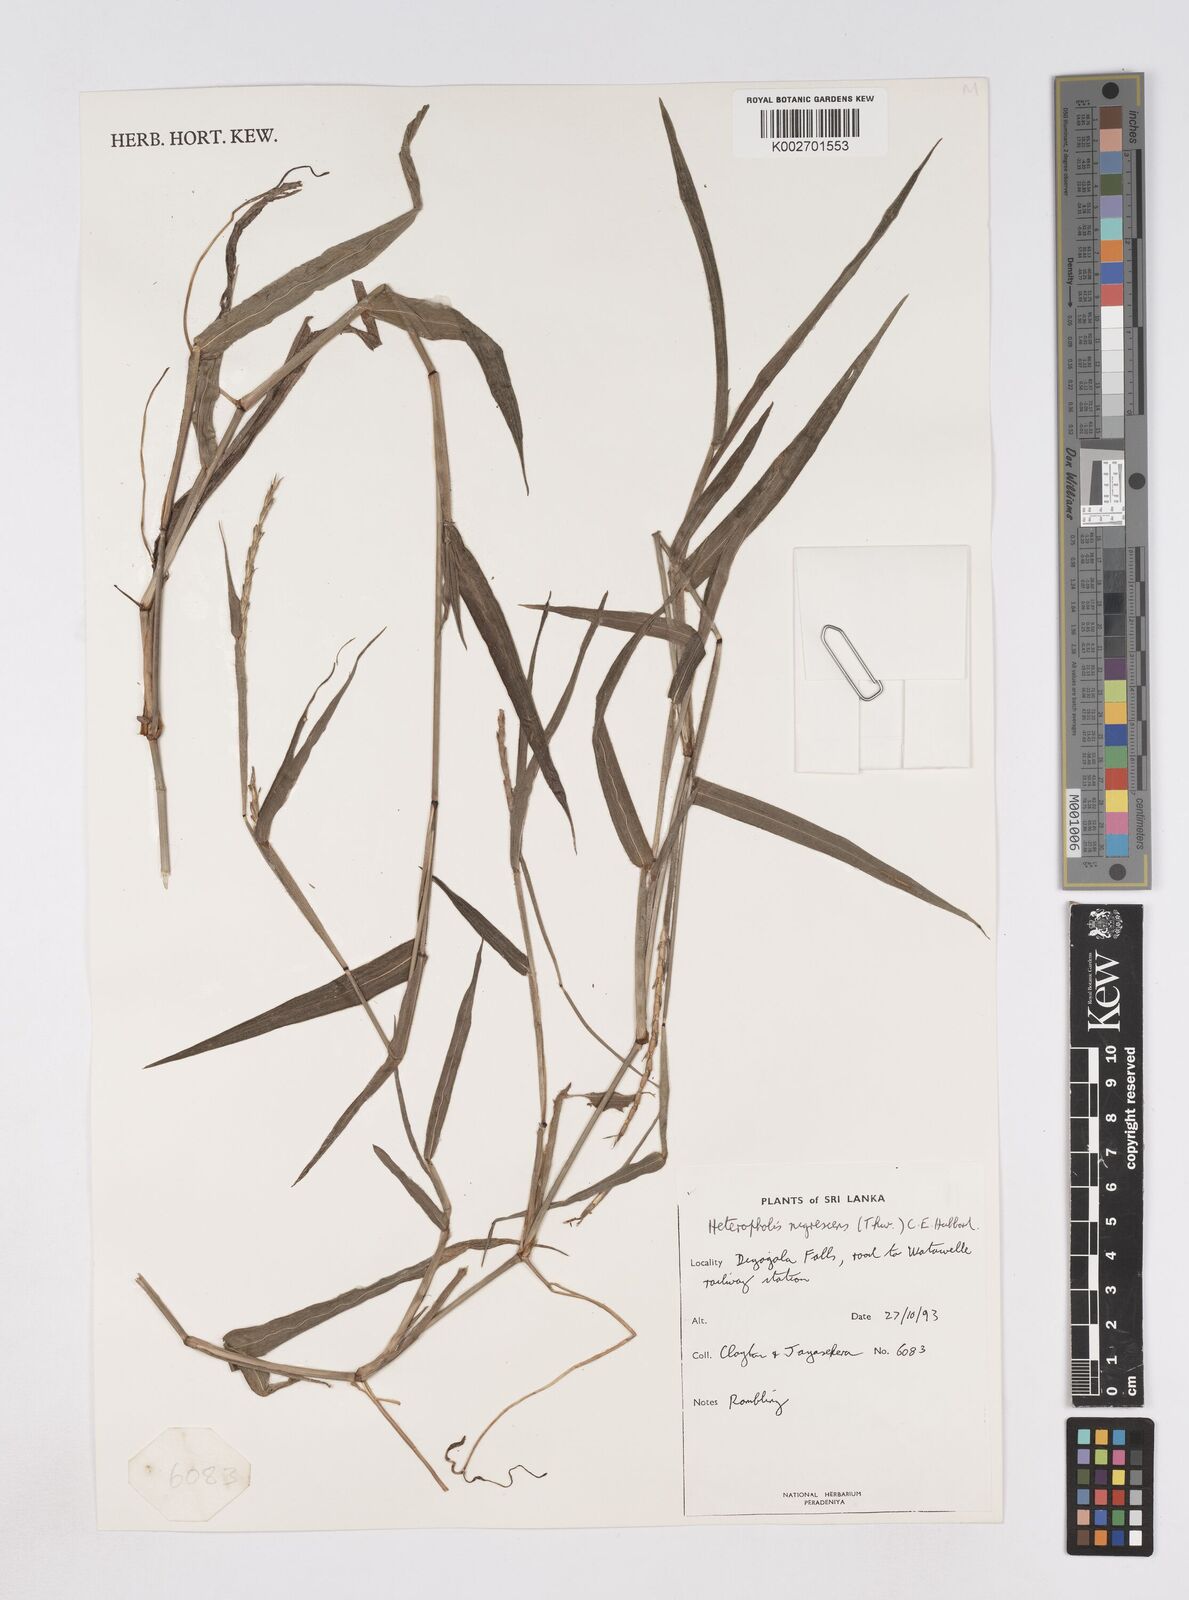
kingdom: Plantae
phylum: Tracheophyta
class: Liliopsida
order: Poales
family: Poaceae
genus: Heteropholis
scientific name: Heteropholis nigrescens
